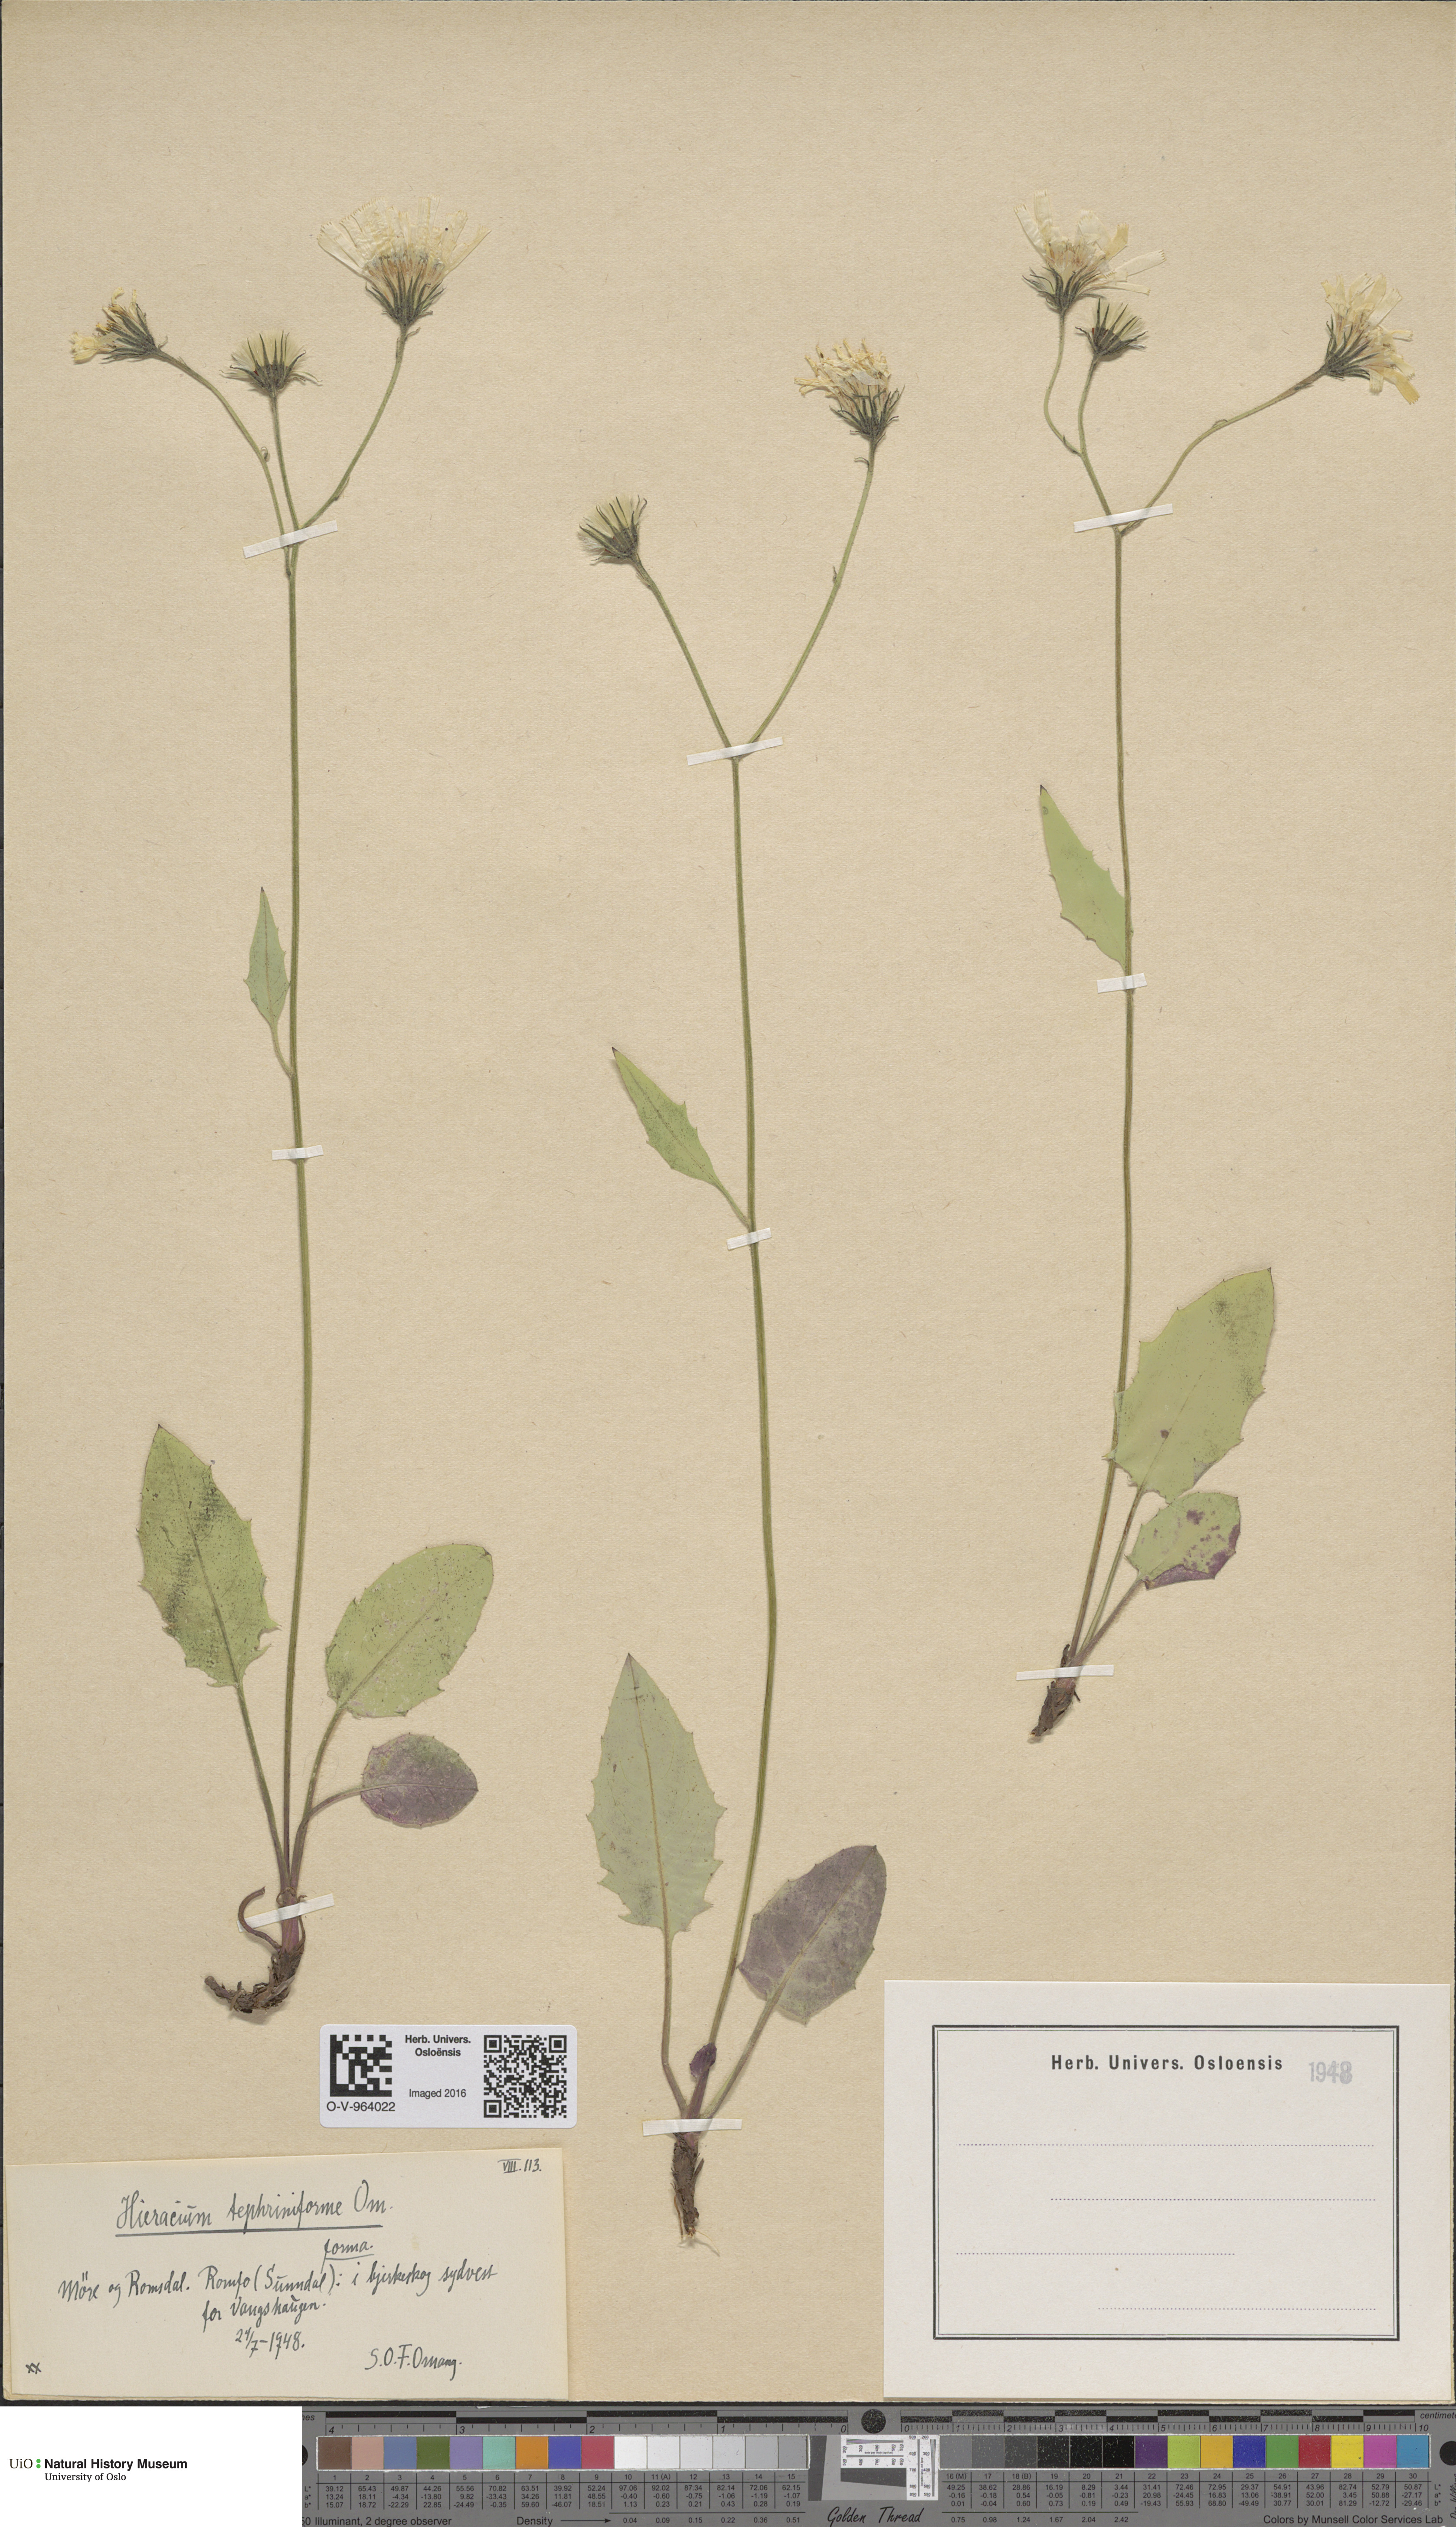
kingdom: Plantae
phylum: Tracheophyta
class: Magnoliopsida
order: Asterales
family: Asteraceae
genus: Hieracium
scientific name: Hieracium
